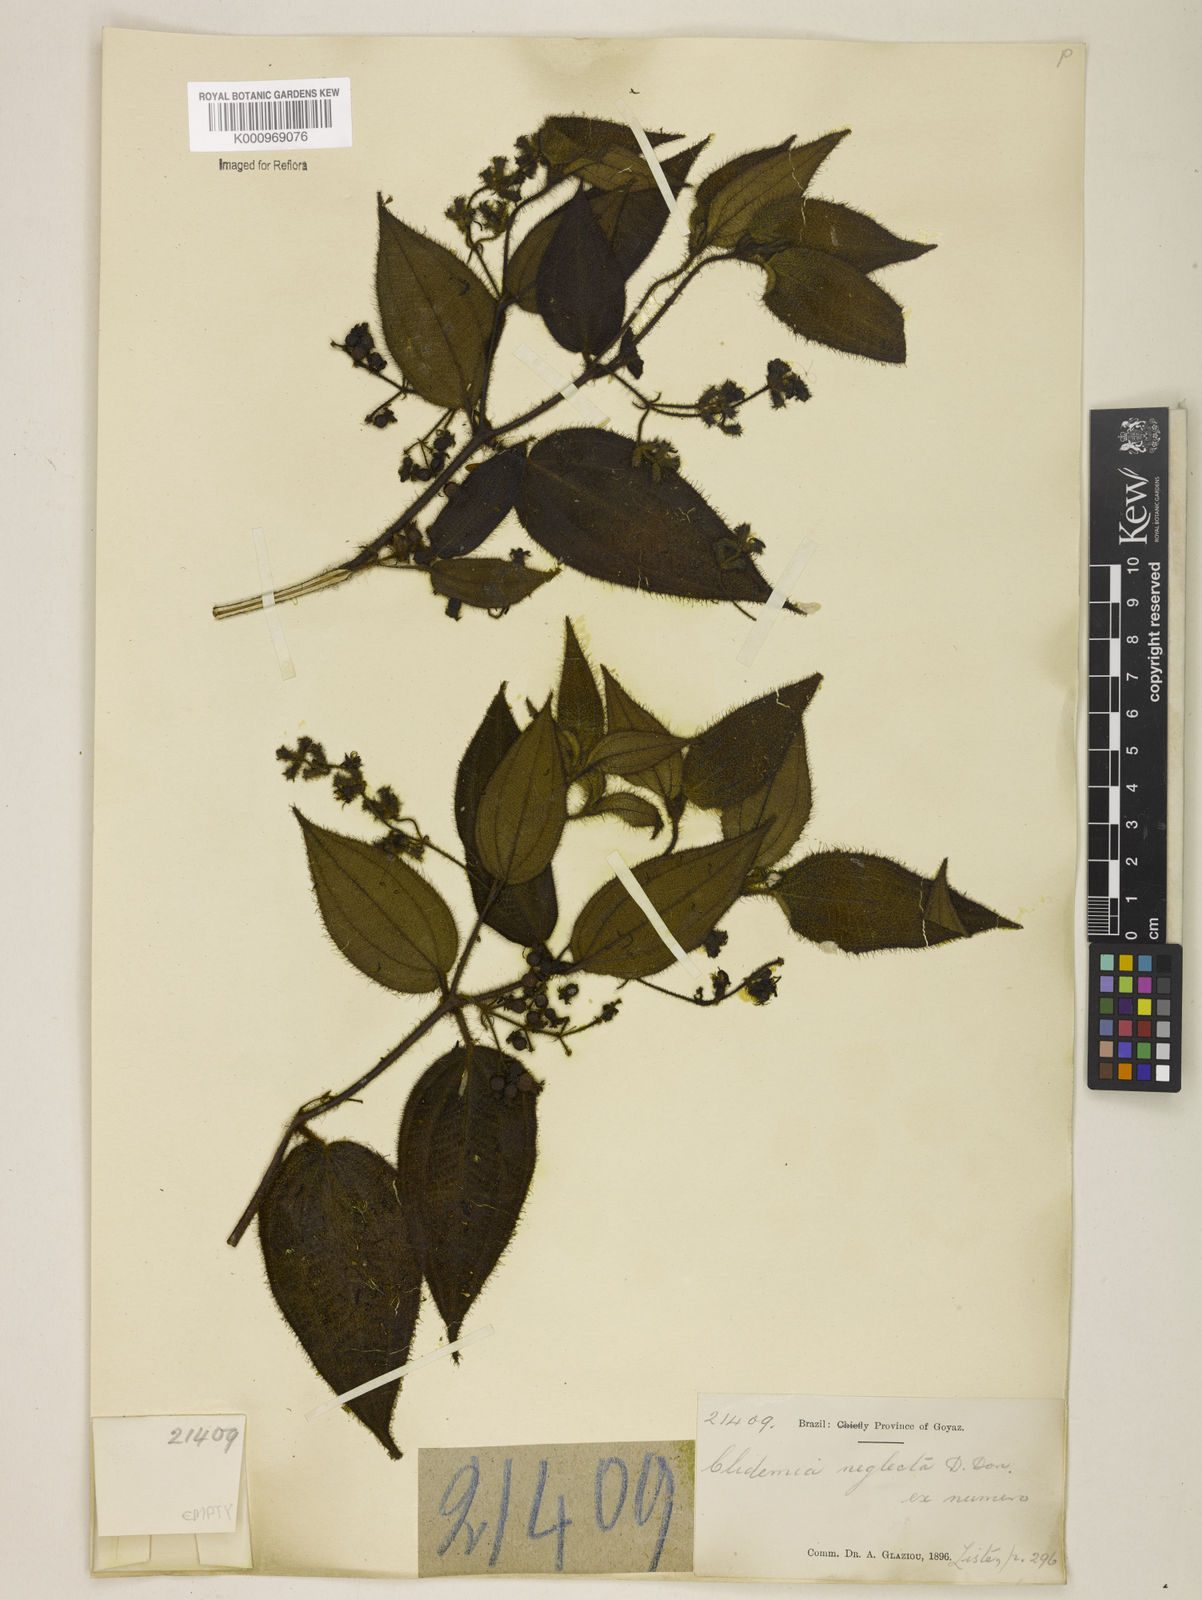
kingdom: Plantae
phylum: Tracheophyta
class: Magnoliopsida
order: Myrtales
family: Melastomataceae
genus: Miconia
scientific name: Miconia dependens
